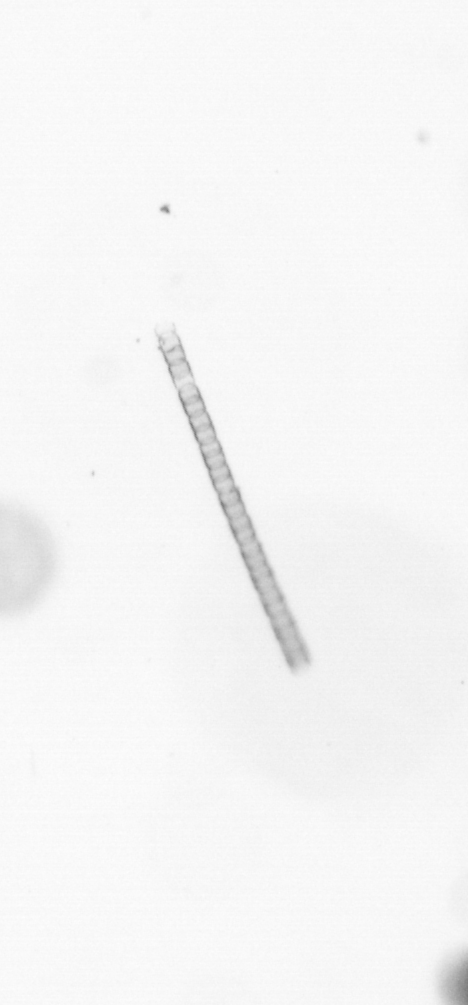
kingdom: Chromista
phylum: Ochrophyta
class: Bacillariophyceae
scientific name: Bacillariophyceae
